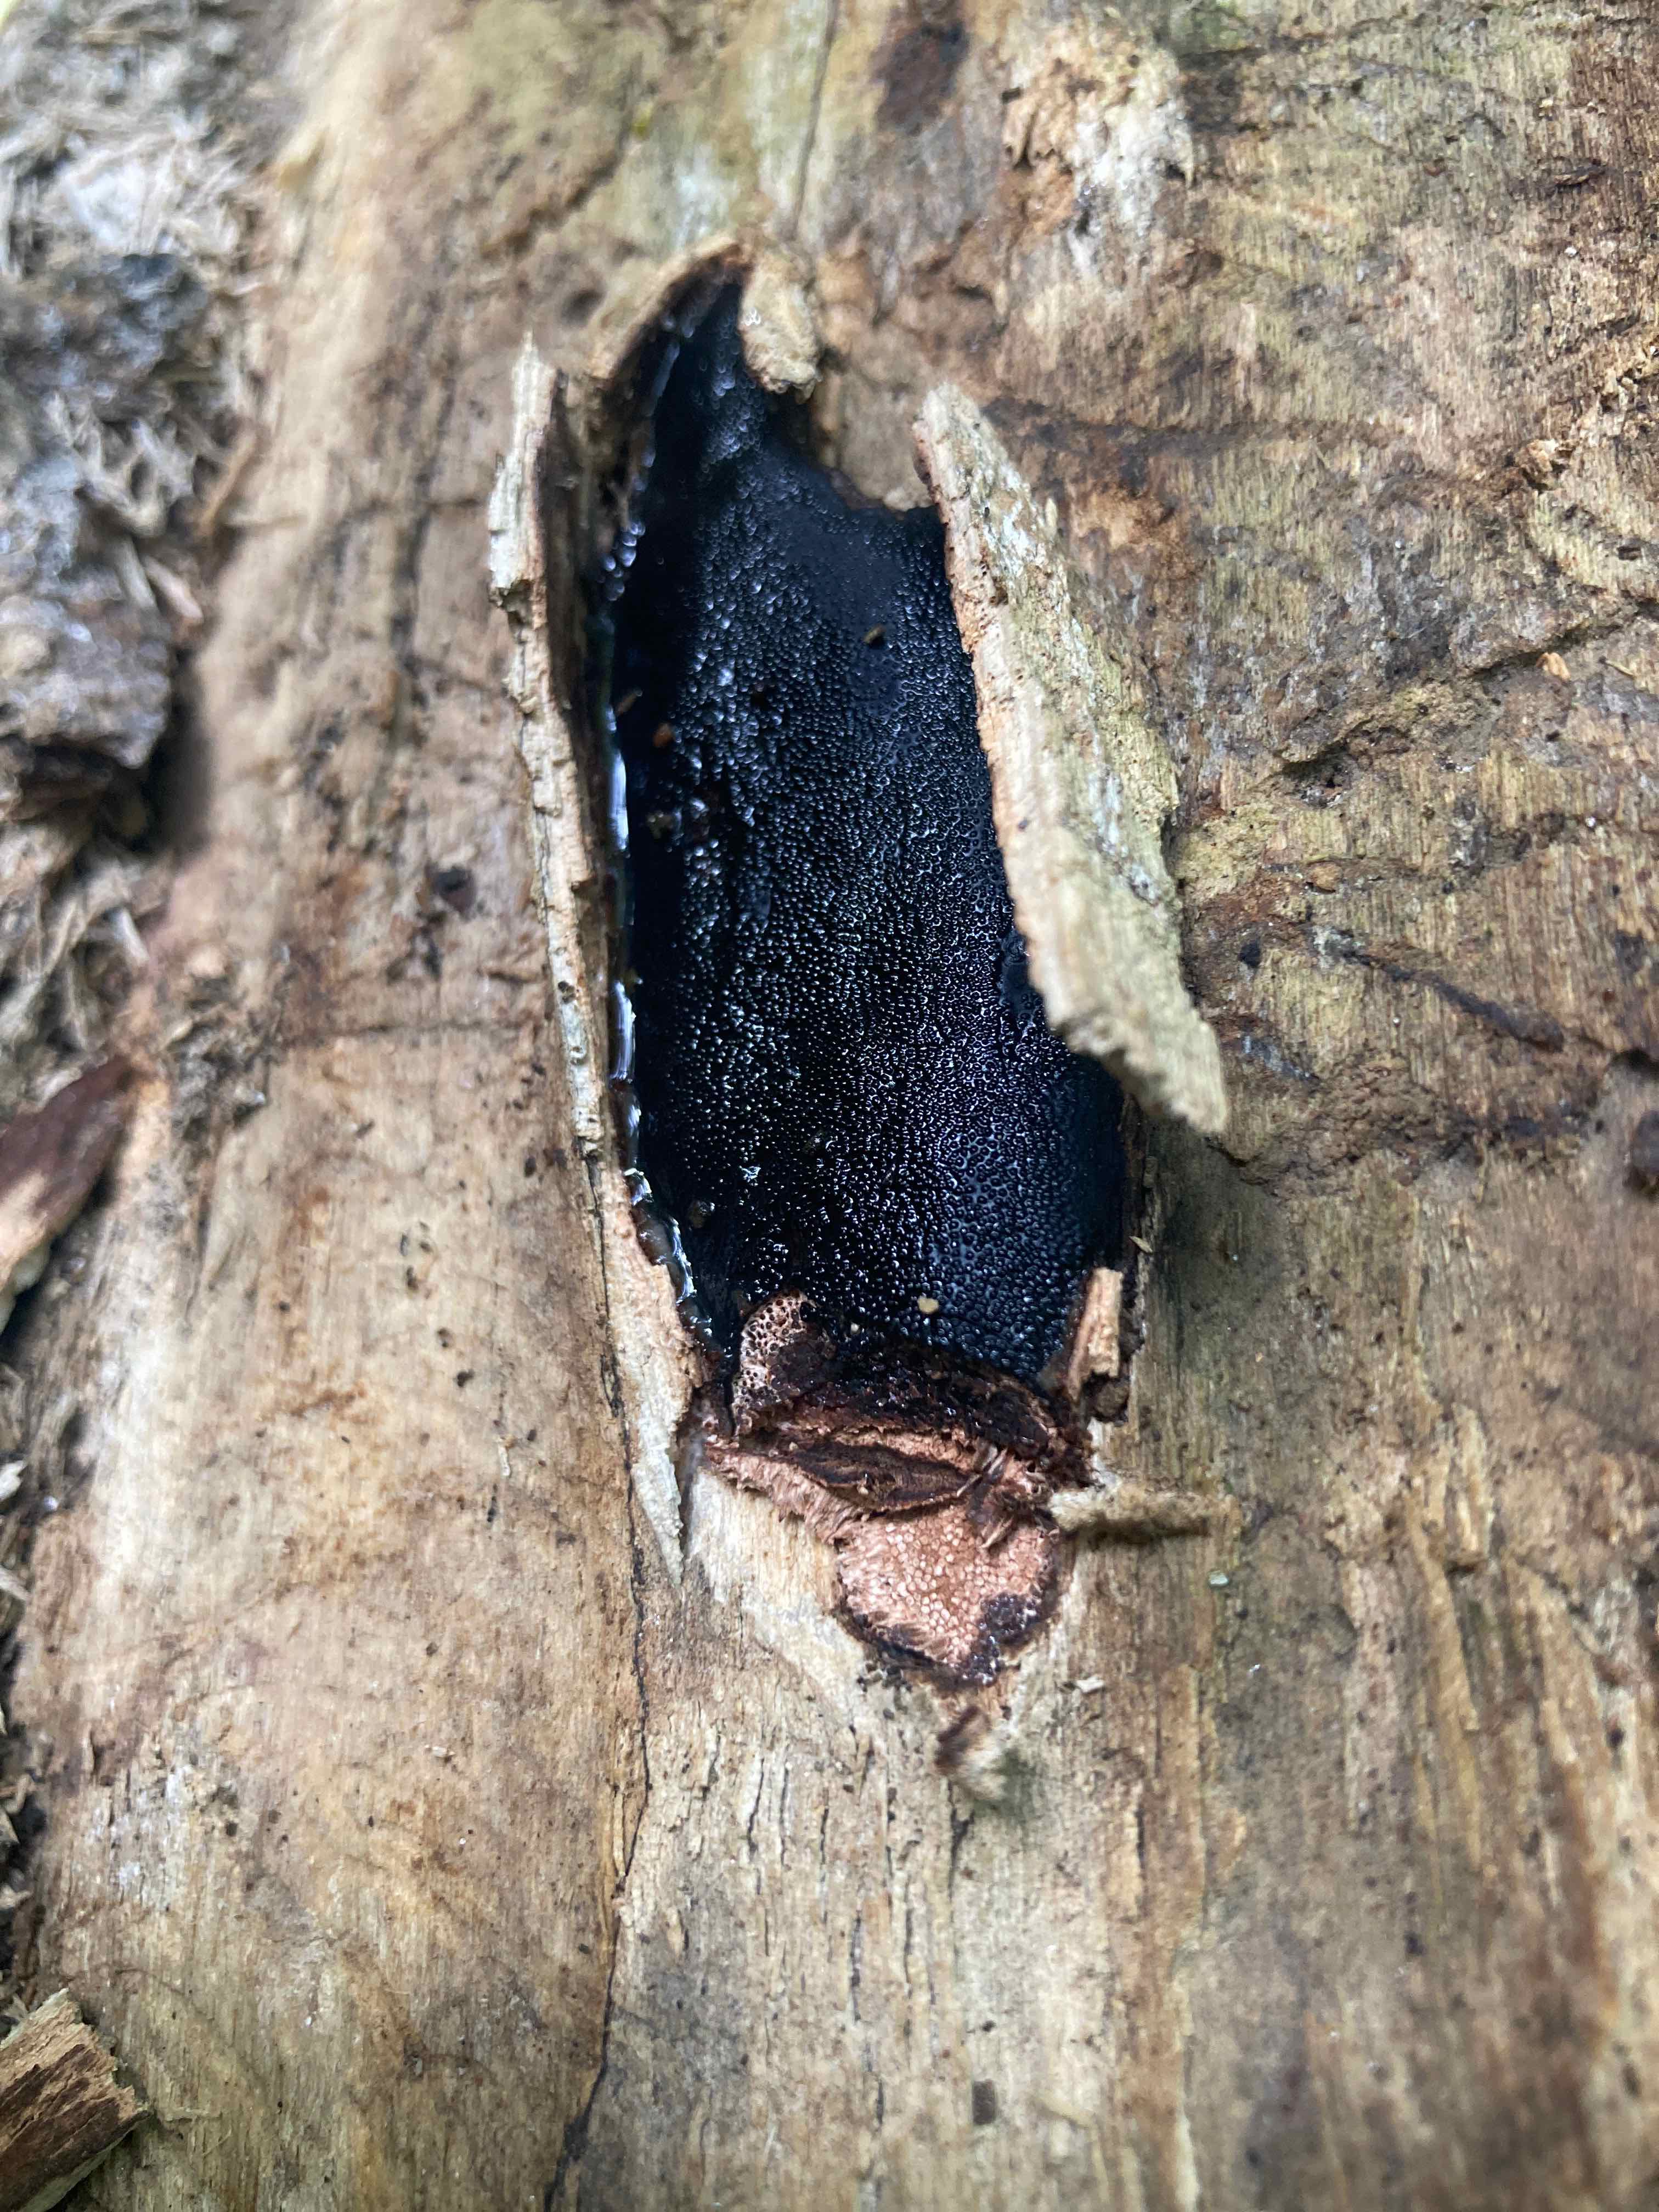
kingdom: Fungi
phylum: Ascomycota
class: Sordariomycetes
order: Boliniales
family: Boliniaceae
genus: Camarops
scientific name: Camarops polysperma
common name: elle-kulsnegl
